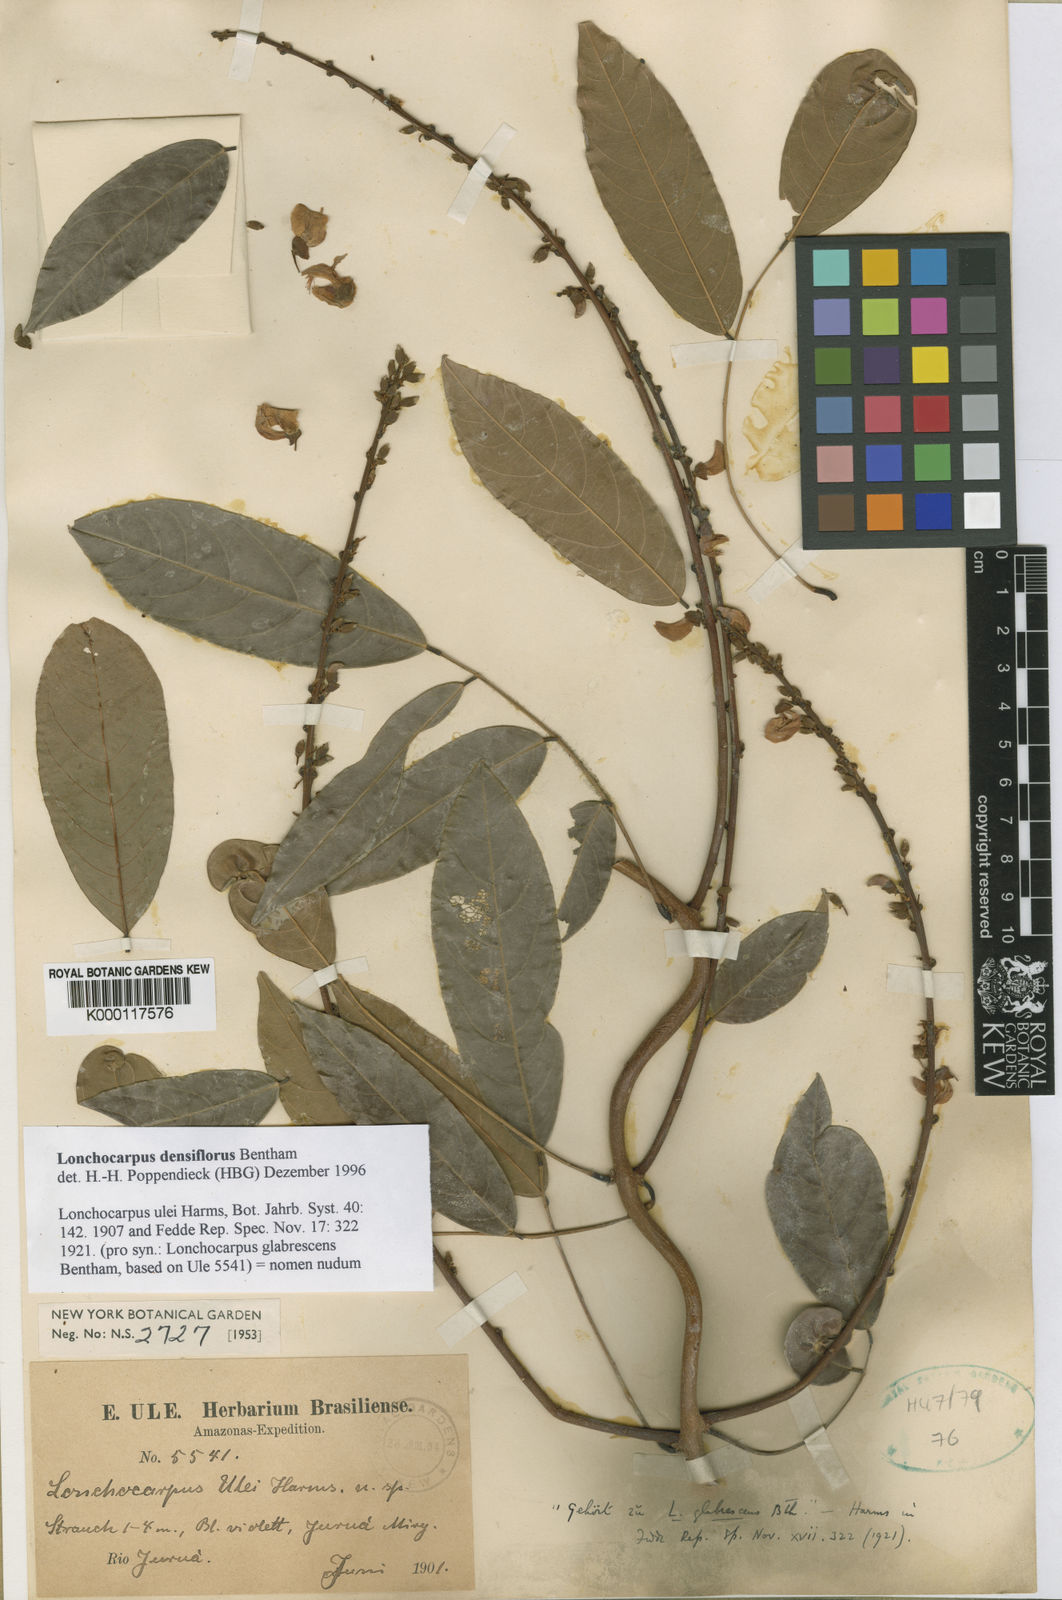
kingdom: Plantae
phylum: Tracheophyta
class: Magnoliopsida
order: Fabales
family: Fabaceae
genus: Lonchocarpus
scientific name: Lonchocarpus
